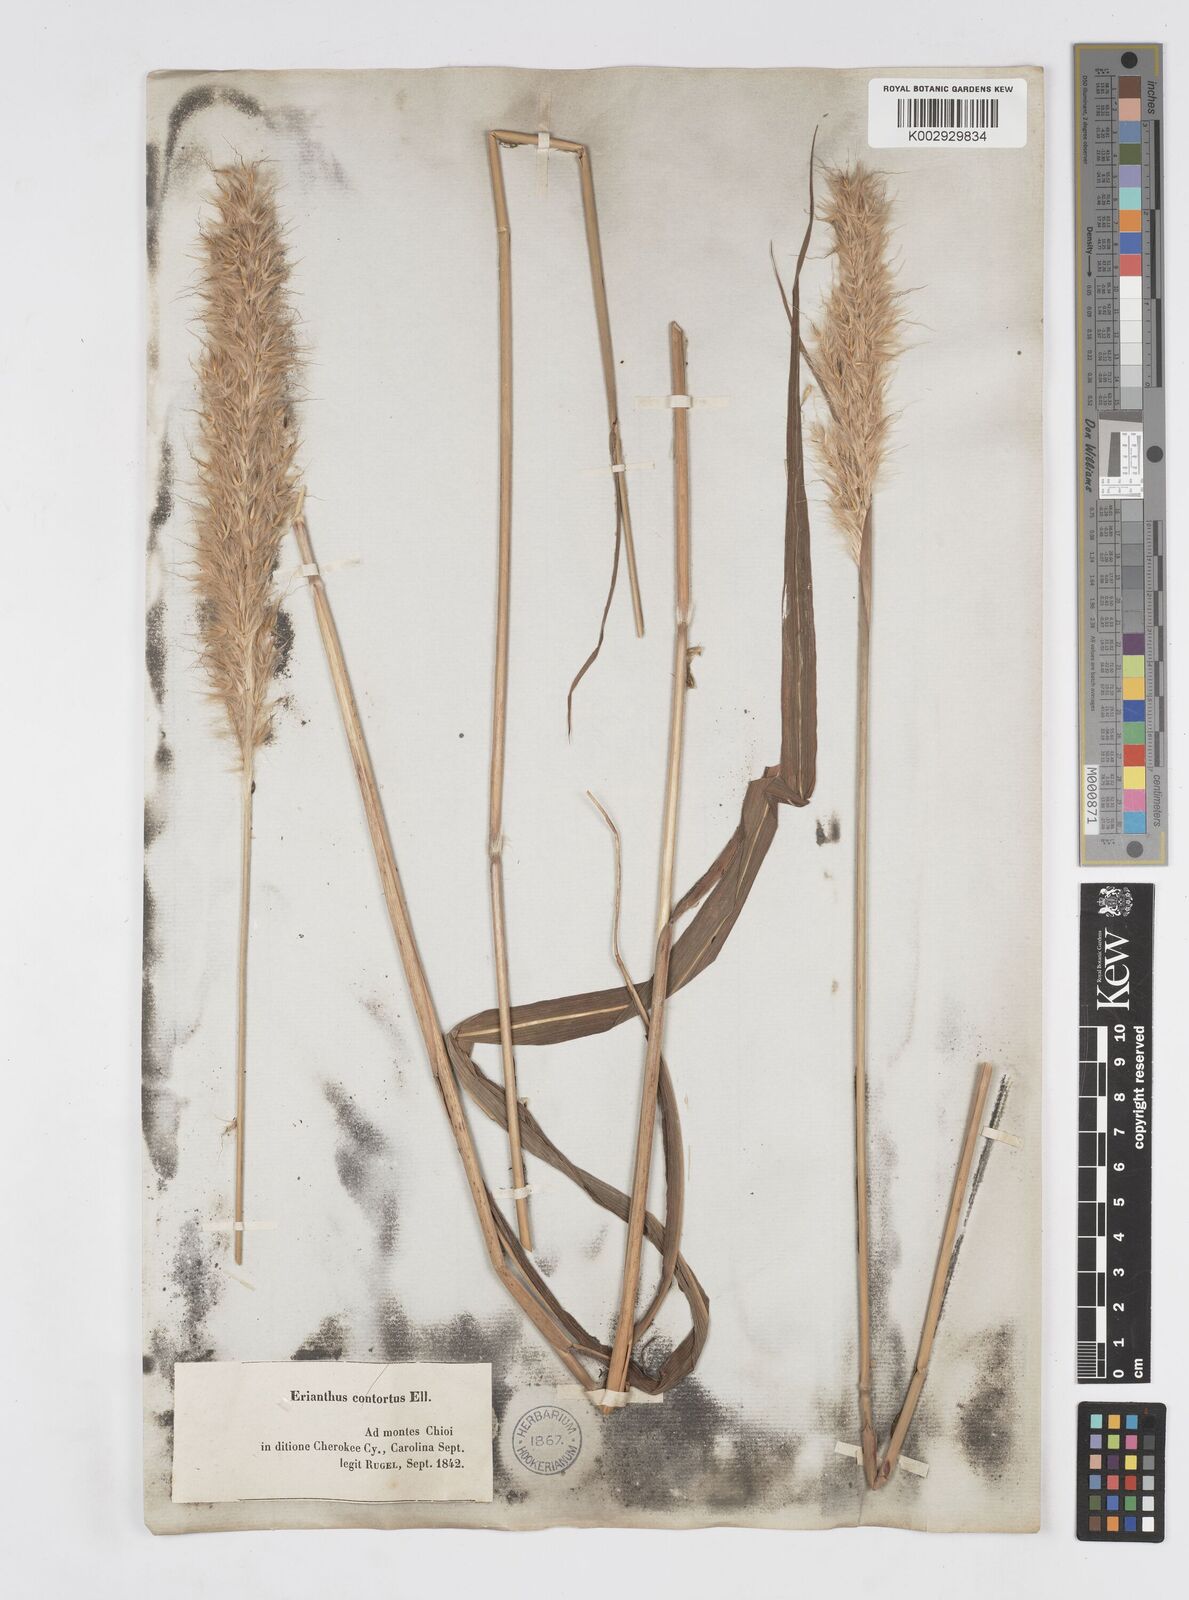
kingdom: Plantae
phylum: Tracheophyta
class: Liliopsida
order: Poales
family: Poaceae
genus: Erianthus
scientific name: Erianthus alopecuroides
